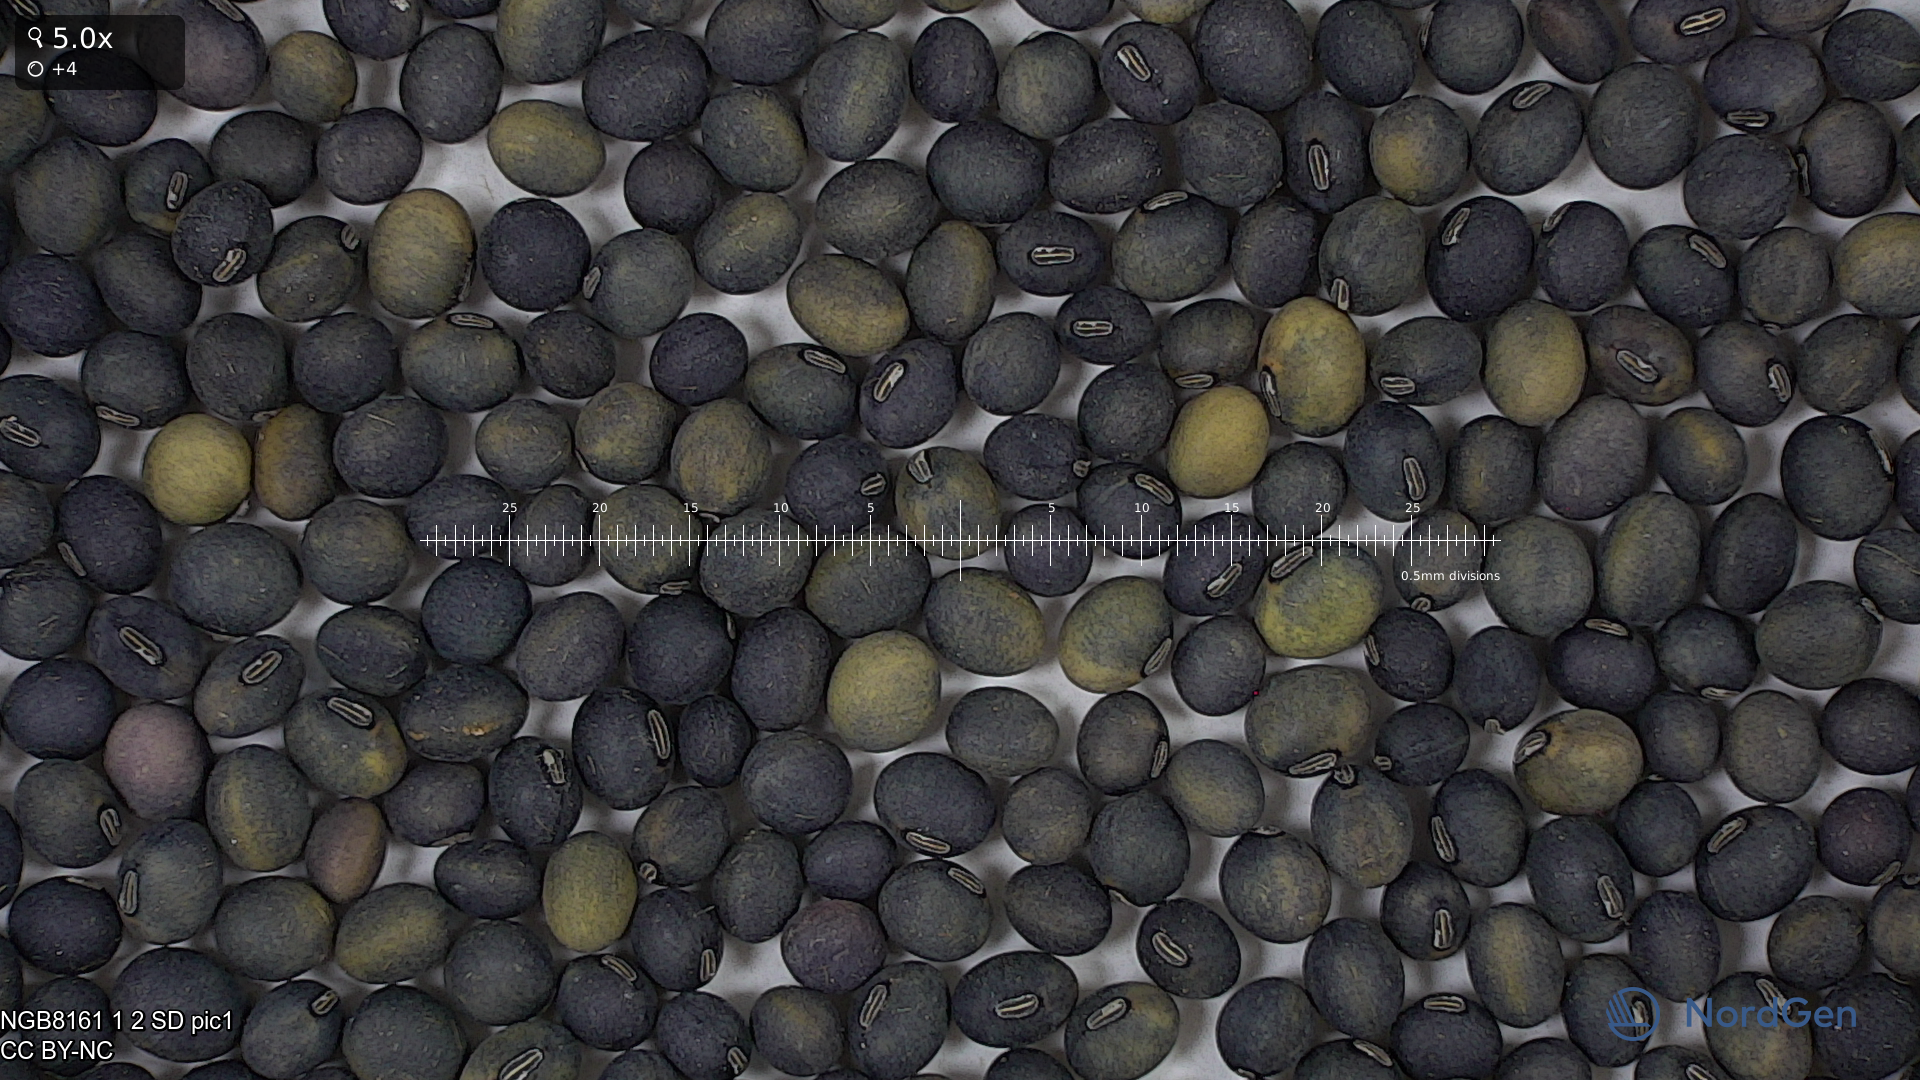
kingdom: Plantae
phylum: Tracheophyta
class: Magnoliopsida
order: Fabales
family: Fabaceae
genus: Glycine
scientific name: Glycine max
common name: Soya-bean
